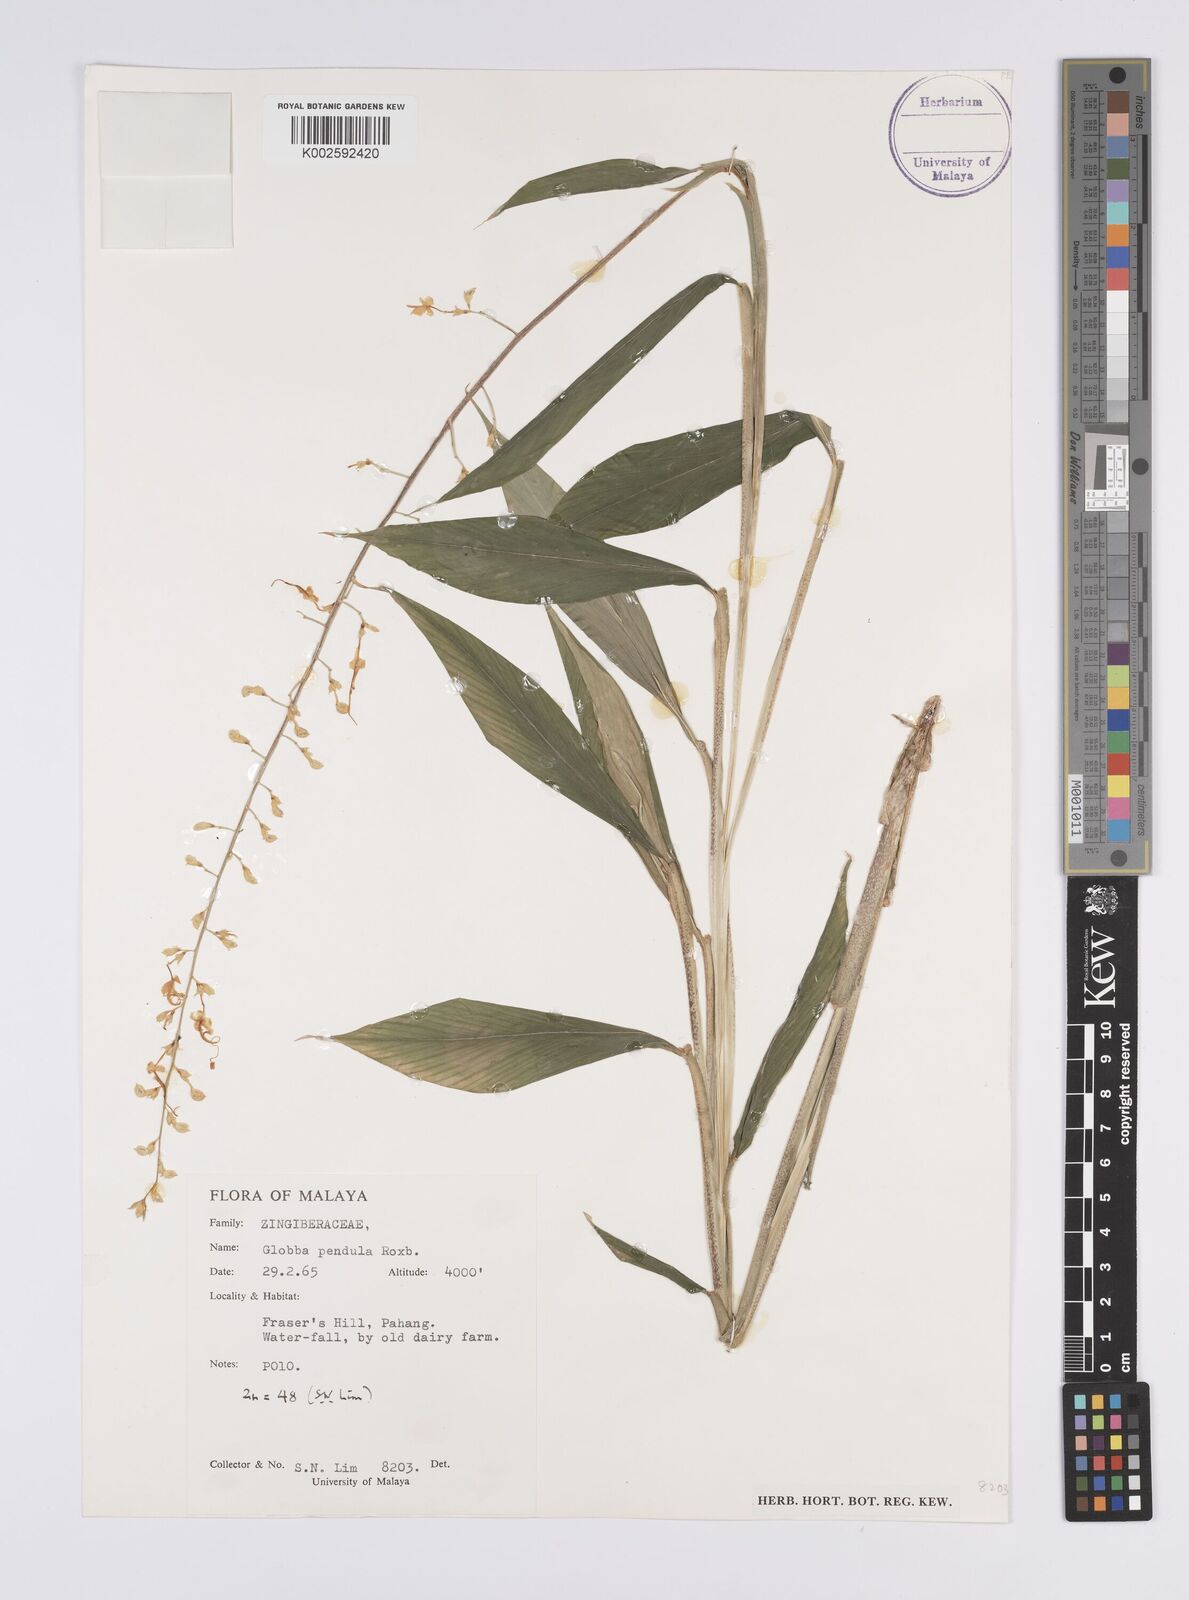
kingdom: Plantae
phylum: Tracheophyta
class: Liliopsida
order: Zingiberales
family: Zingiberaceae
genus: Globba
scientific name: Globba pendula
